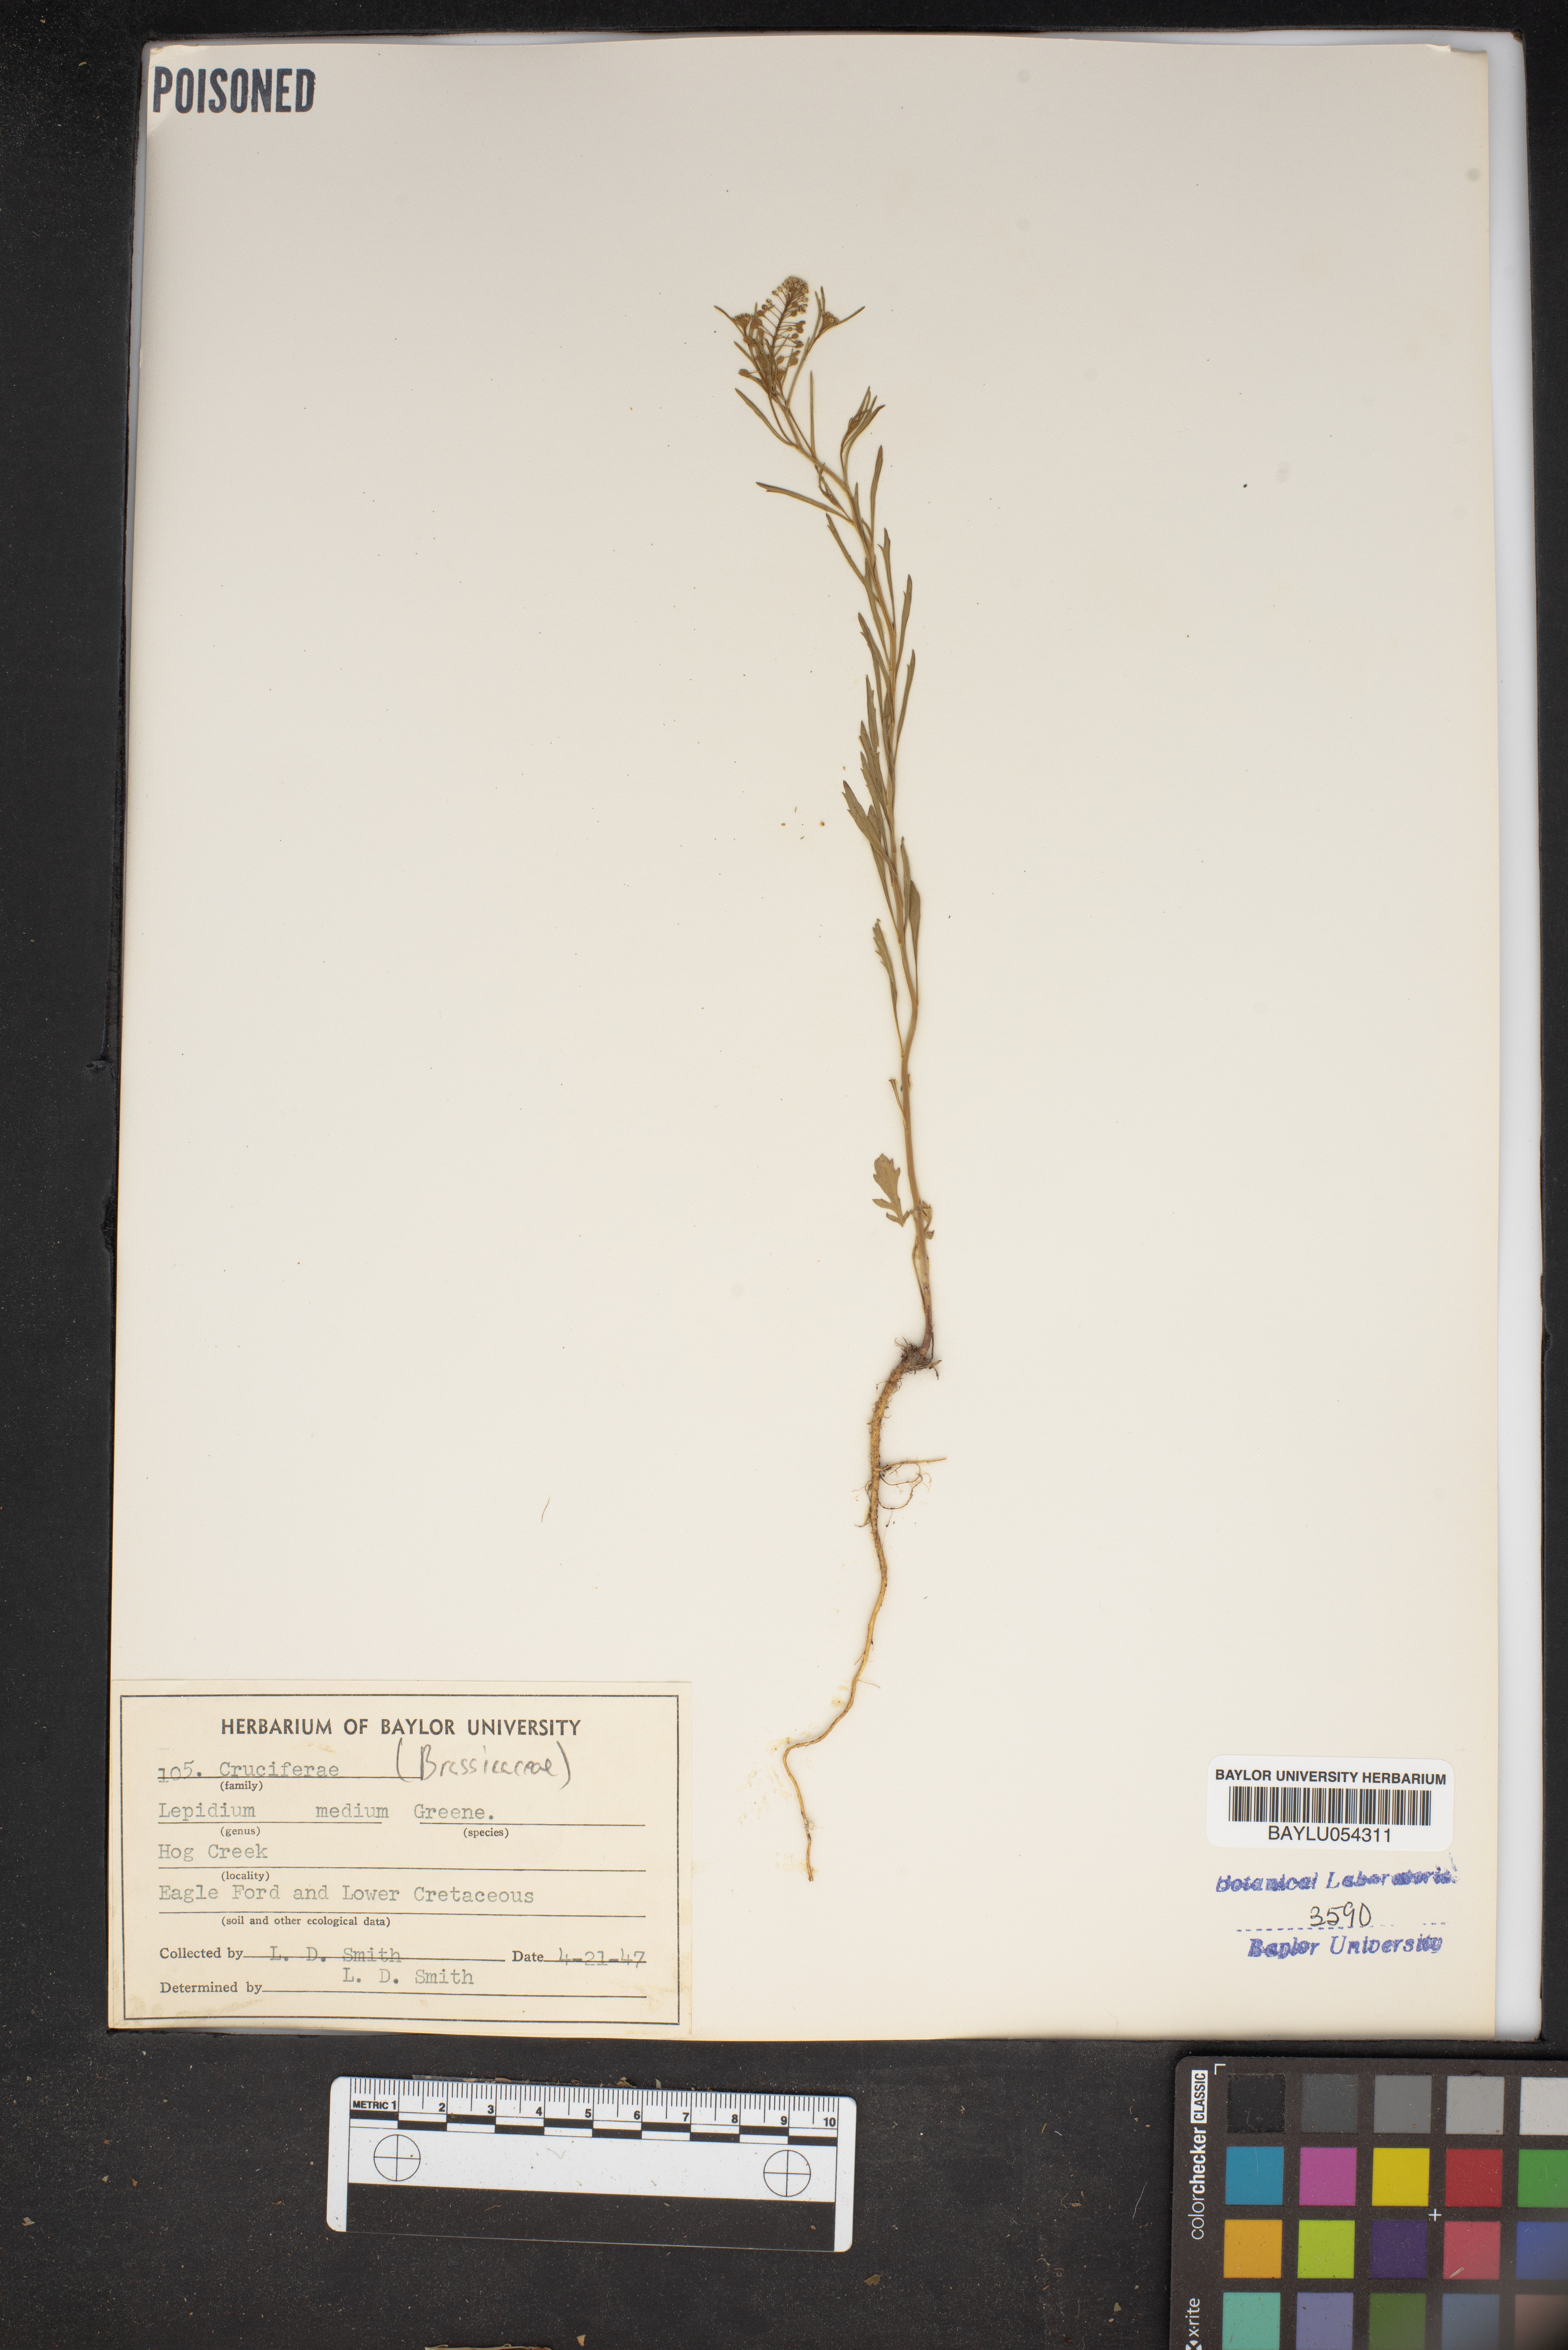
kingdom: Plantae
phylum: Tracheophyta
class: Magnoliopsida
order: Brassicales
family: Brassicaceae
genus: Lepidium
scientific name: Lepidium virginicum
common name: Least pepperwort
